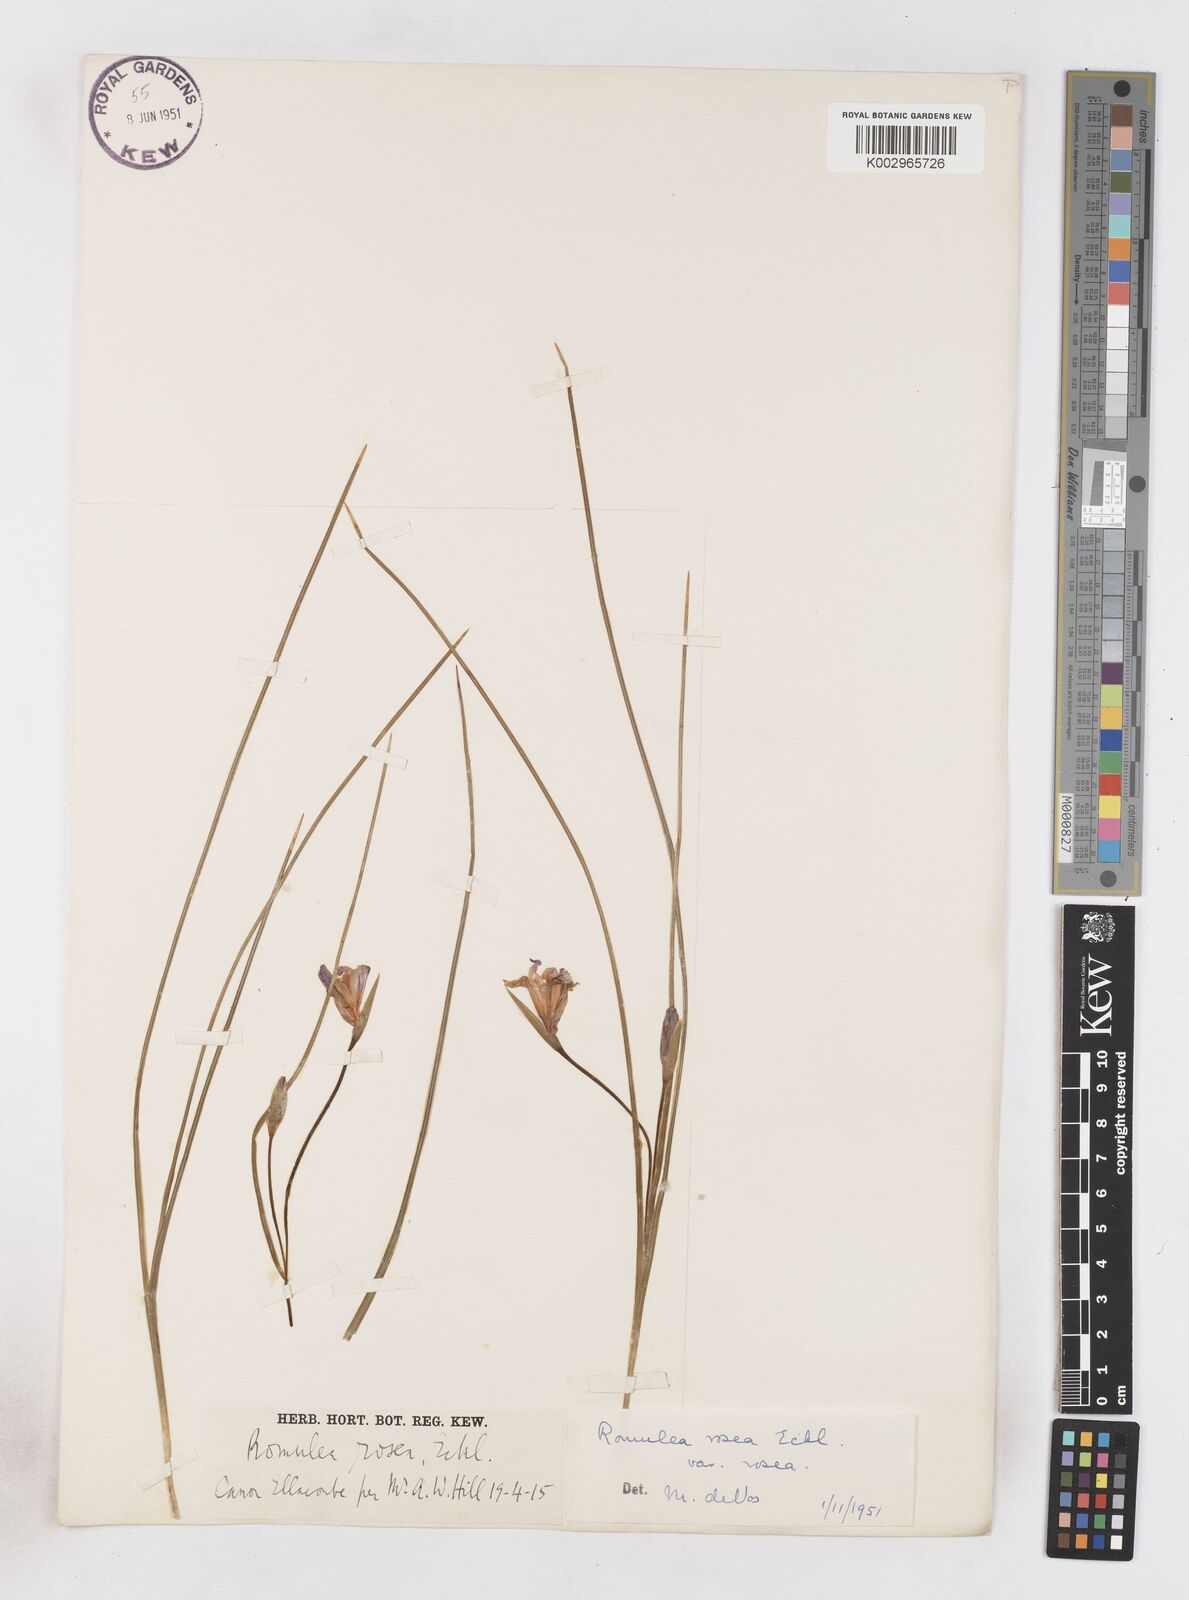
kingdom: Plantae
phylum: Tracheophyta
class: Liliopsida
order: Asparagales
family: Iridaceae
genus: Romulea
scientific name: Romulea rosea
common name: Oniongrass
